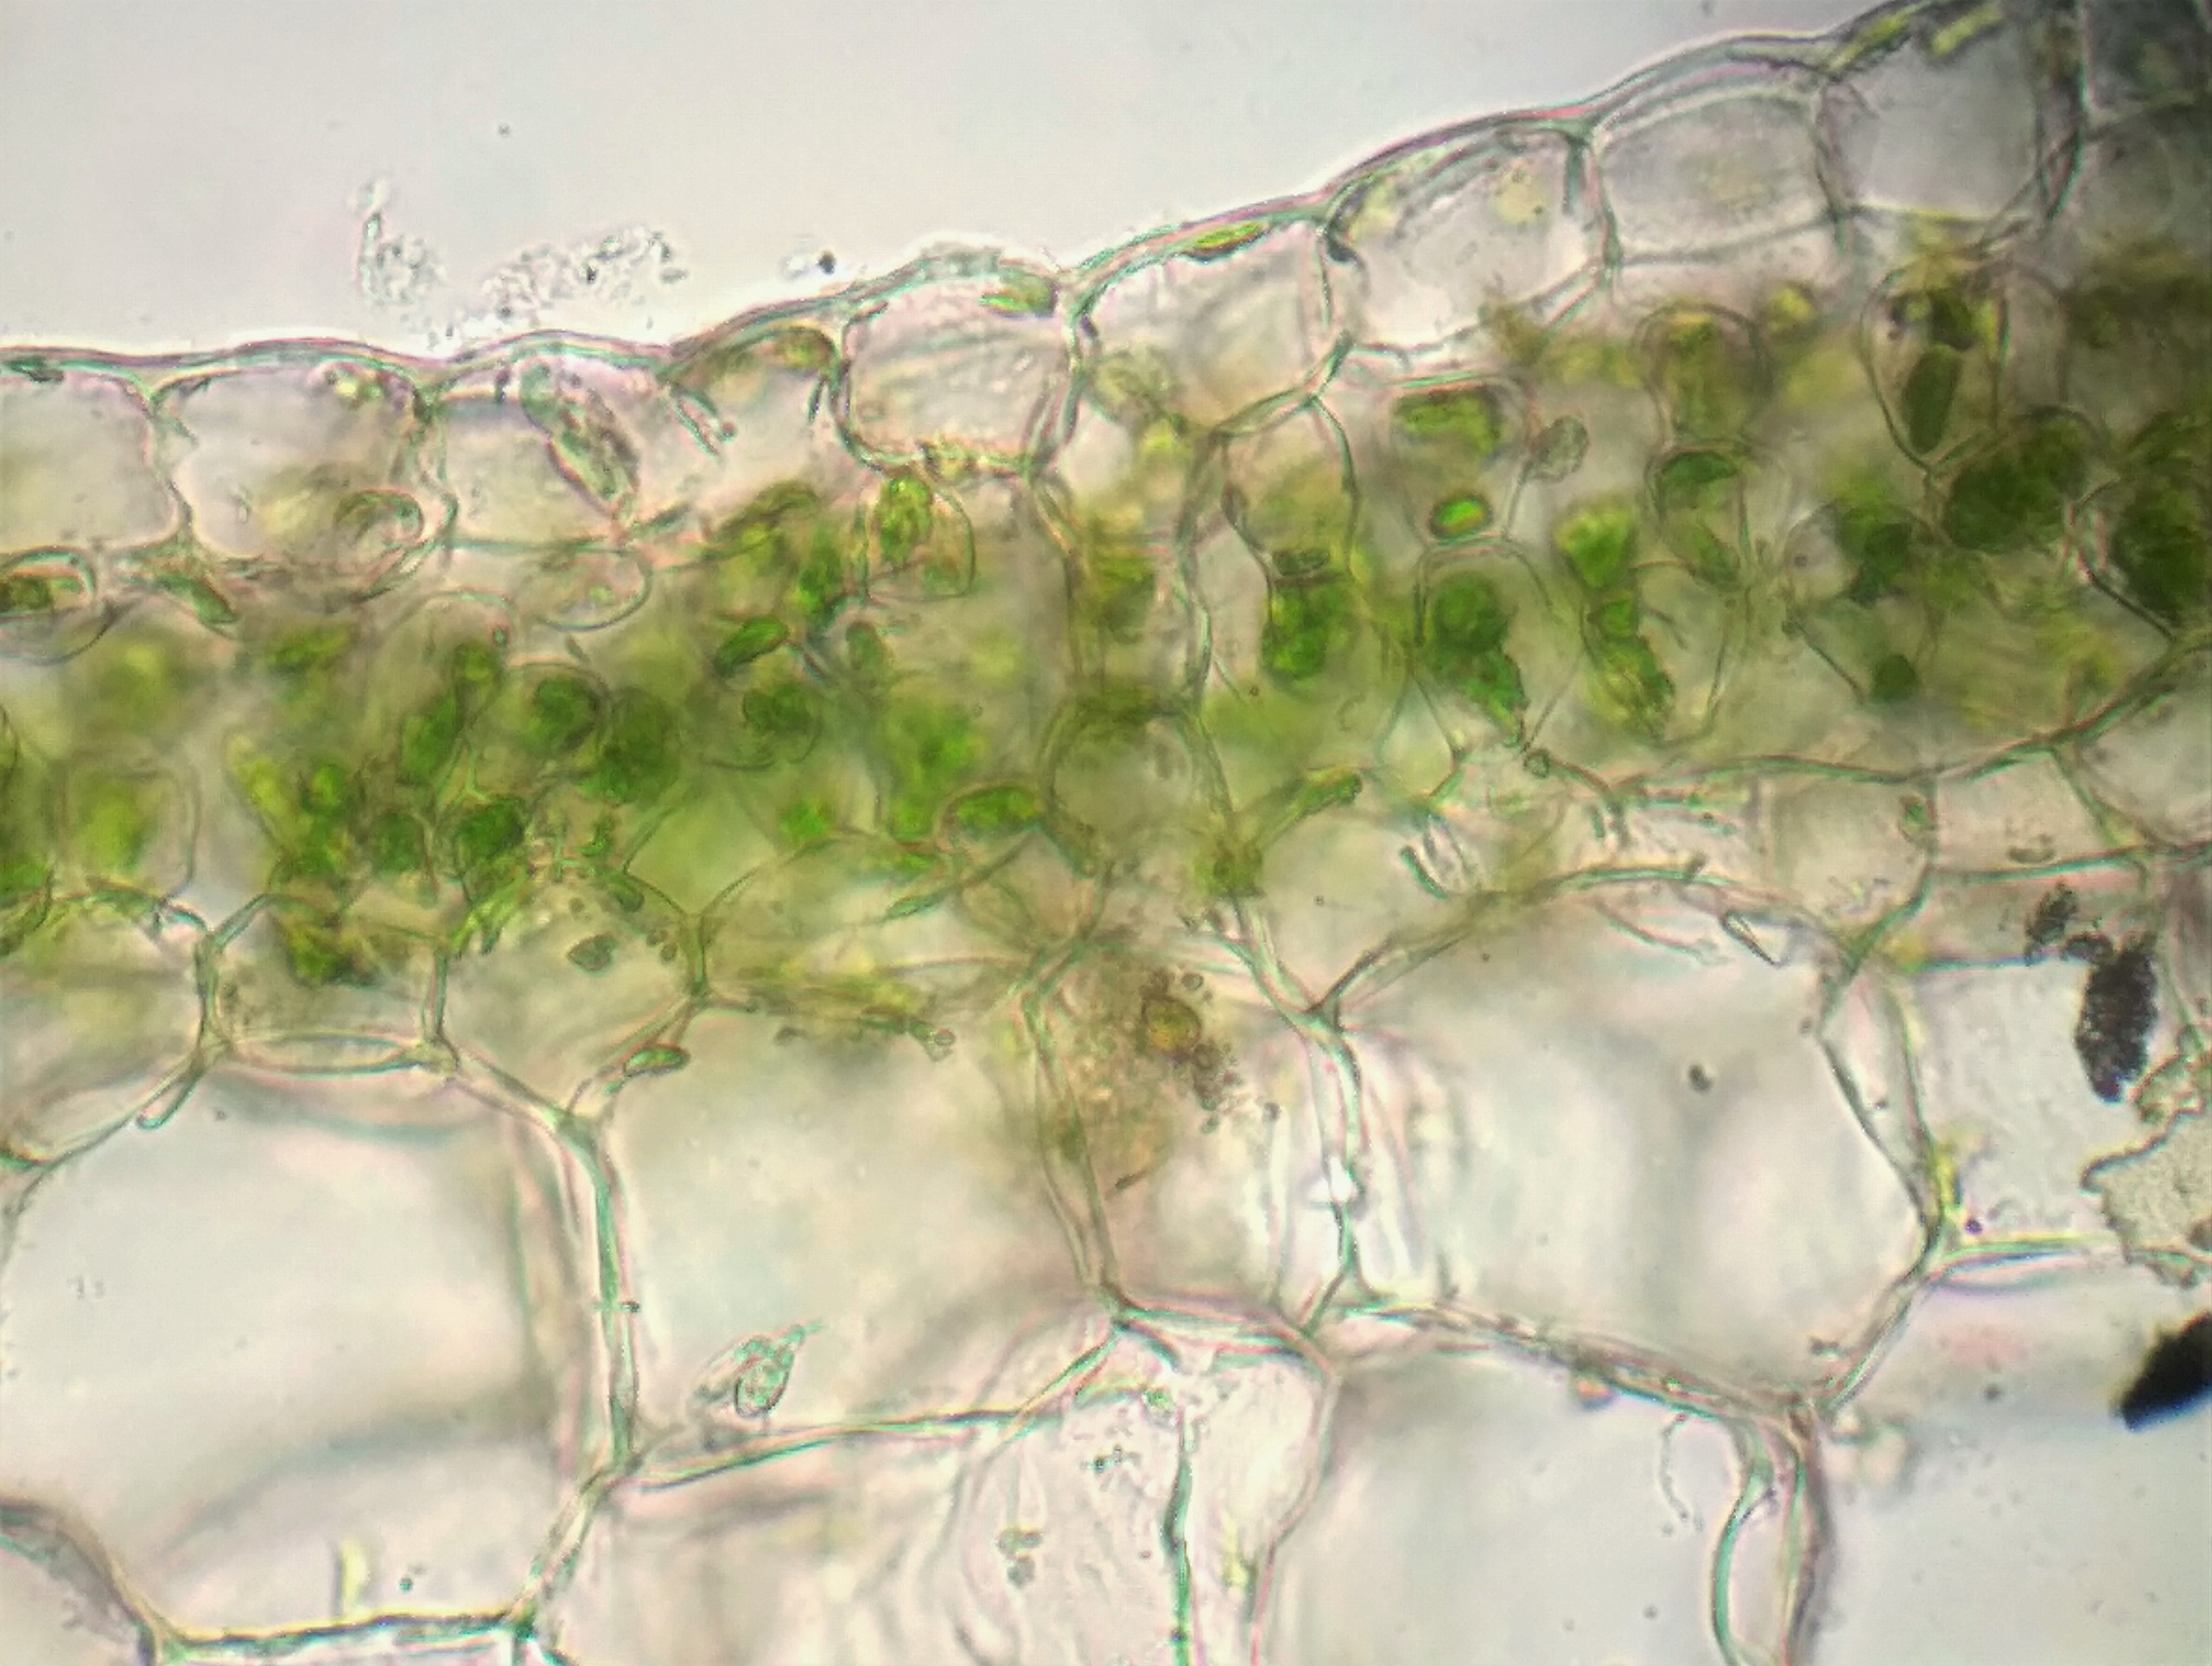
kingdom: Plantae
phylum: Marchantiophyta
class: Marchantiopsida
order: Marchantiales
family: Conocephalaceae
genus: Conocephalum
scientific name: Conocephalum conicum
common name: Glat krokodillemos
